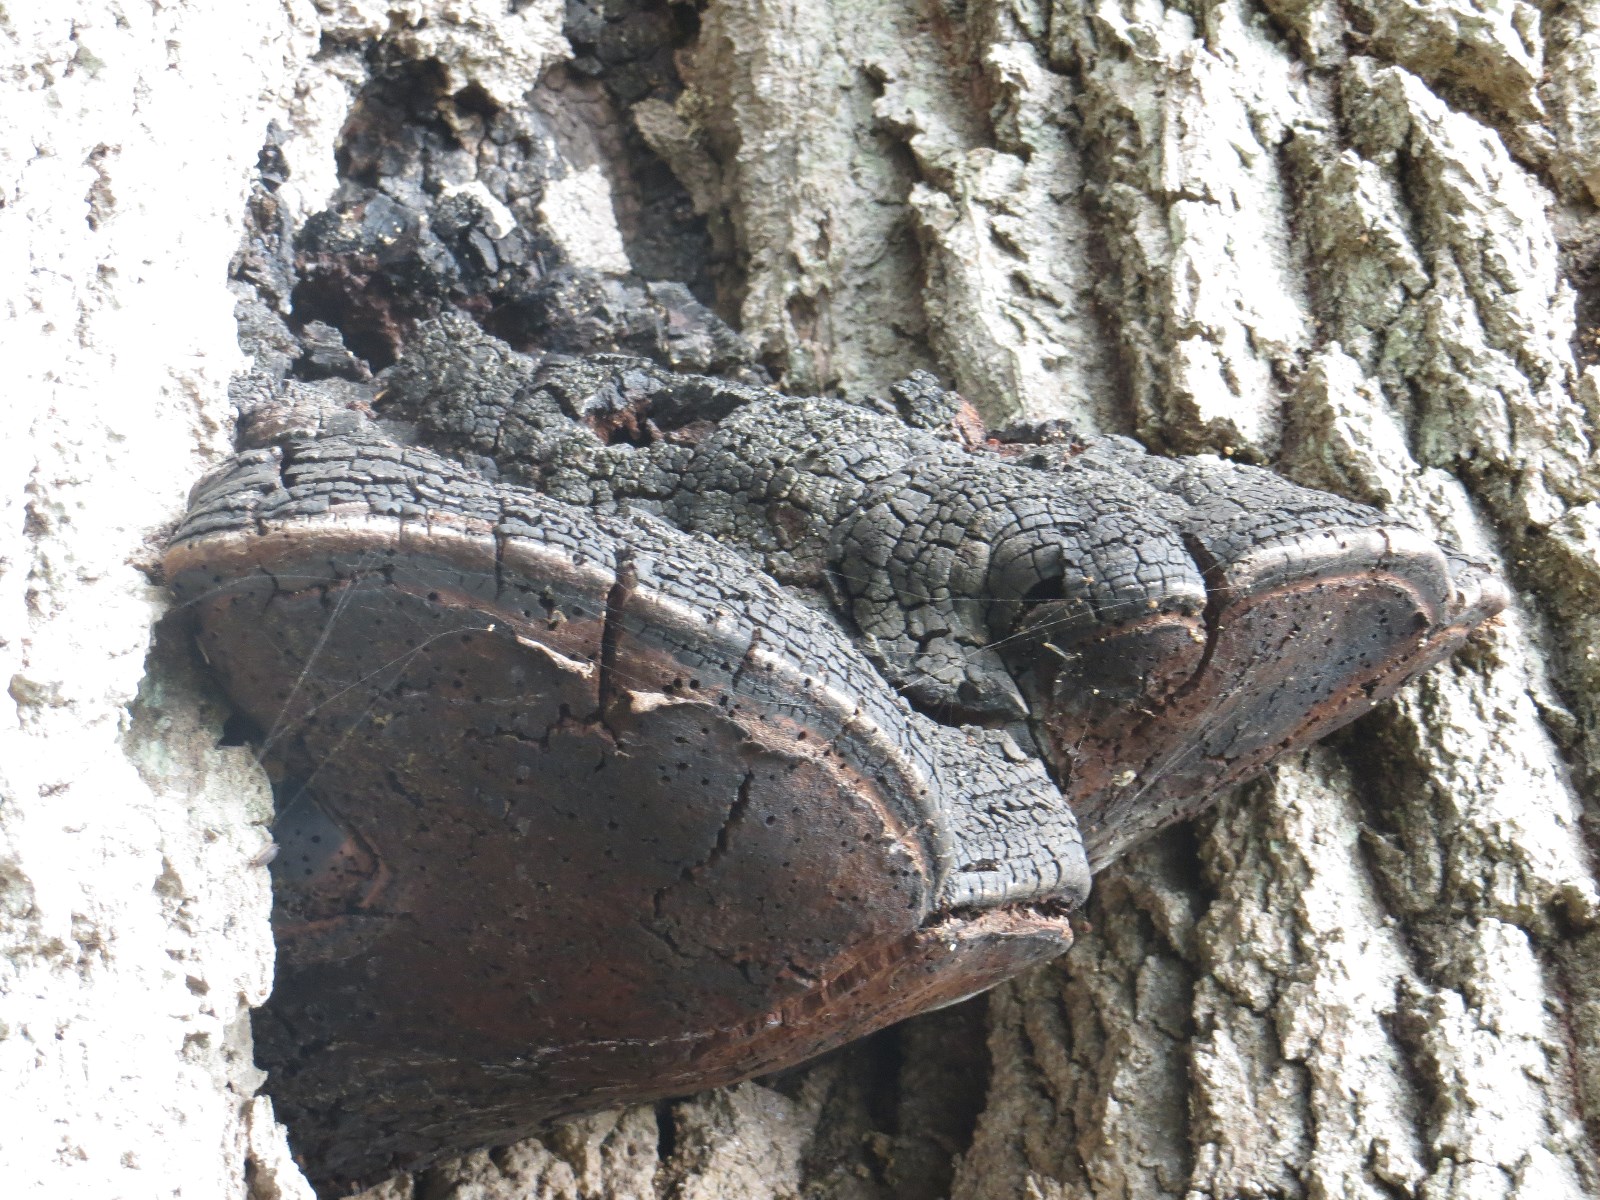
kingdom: Fungi
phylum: Basidiomycota
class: Agaricomycetes
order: Hymenochaetales
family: Hymenochaetaceae
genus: Phellinus
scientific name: Phellinus populicola
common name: poppel-ildporesvamp
